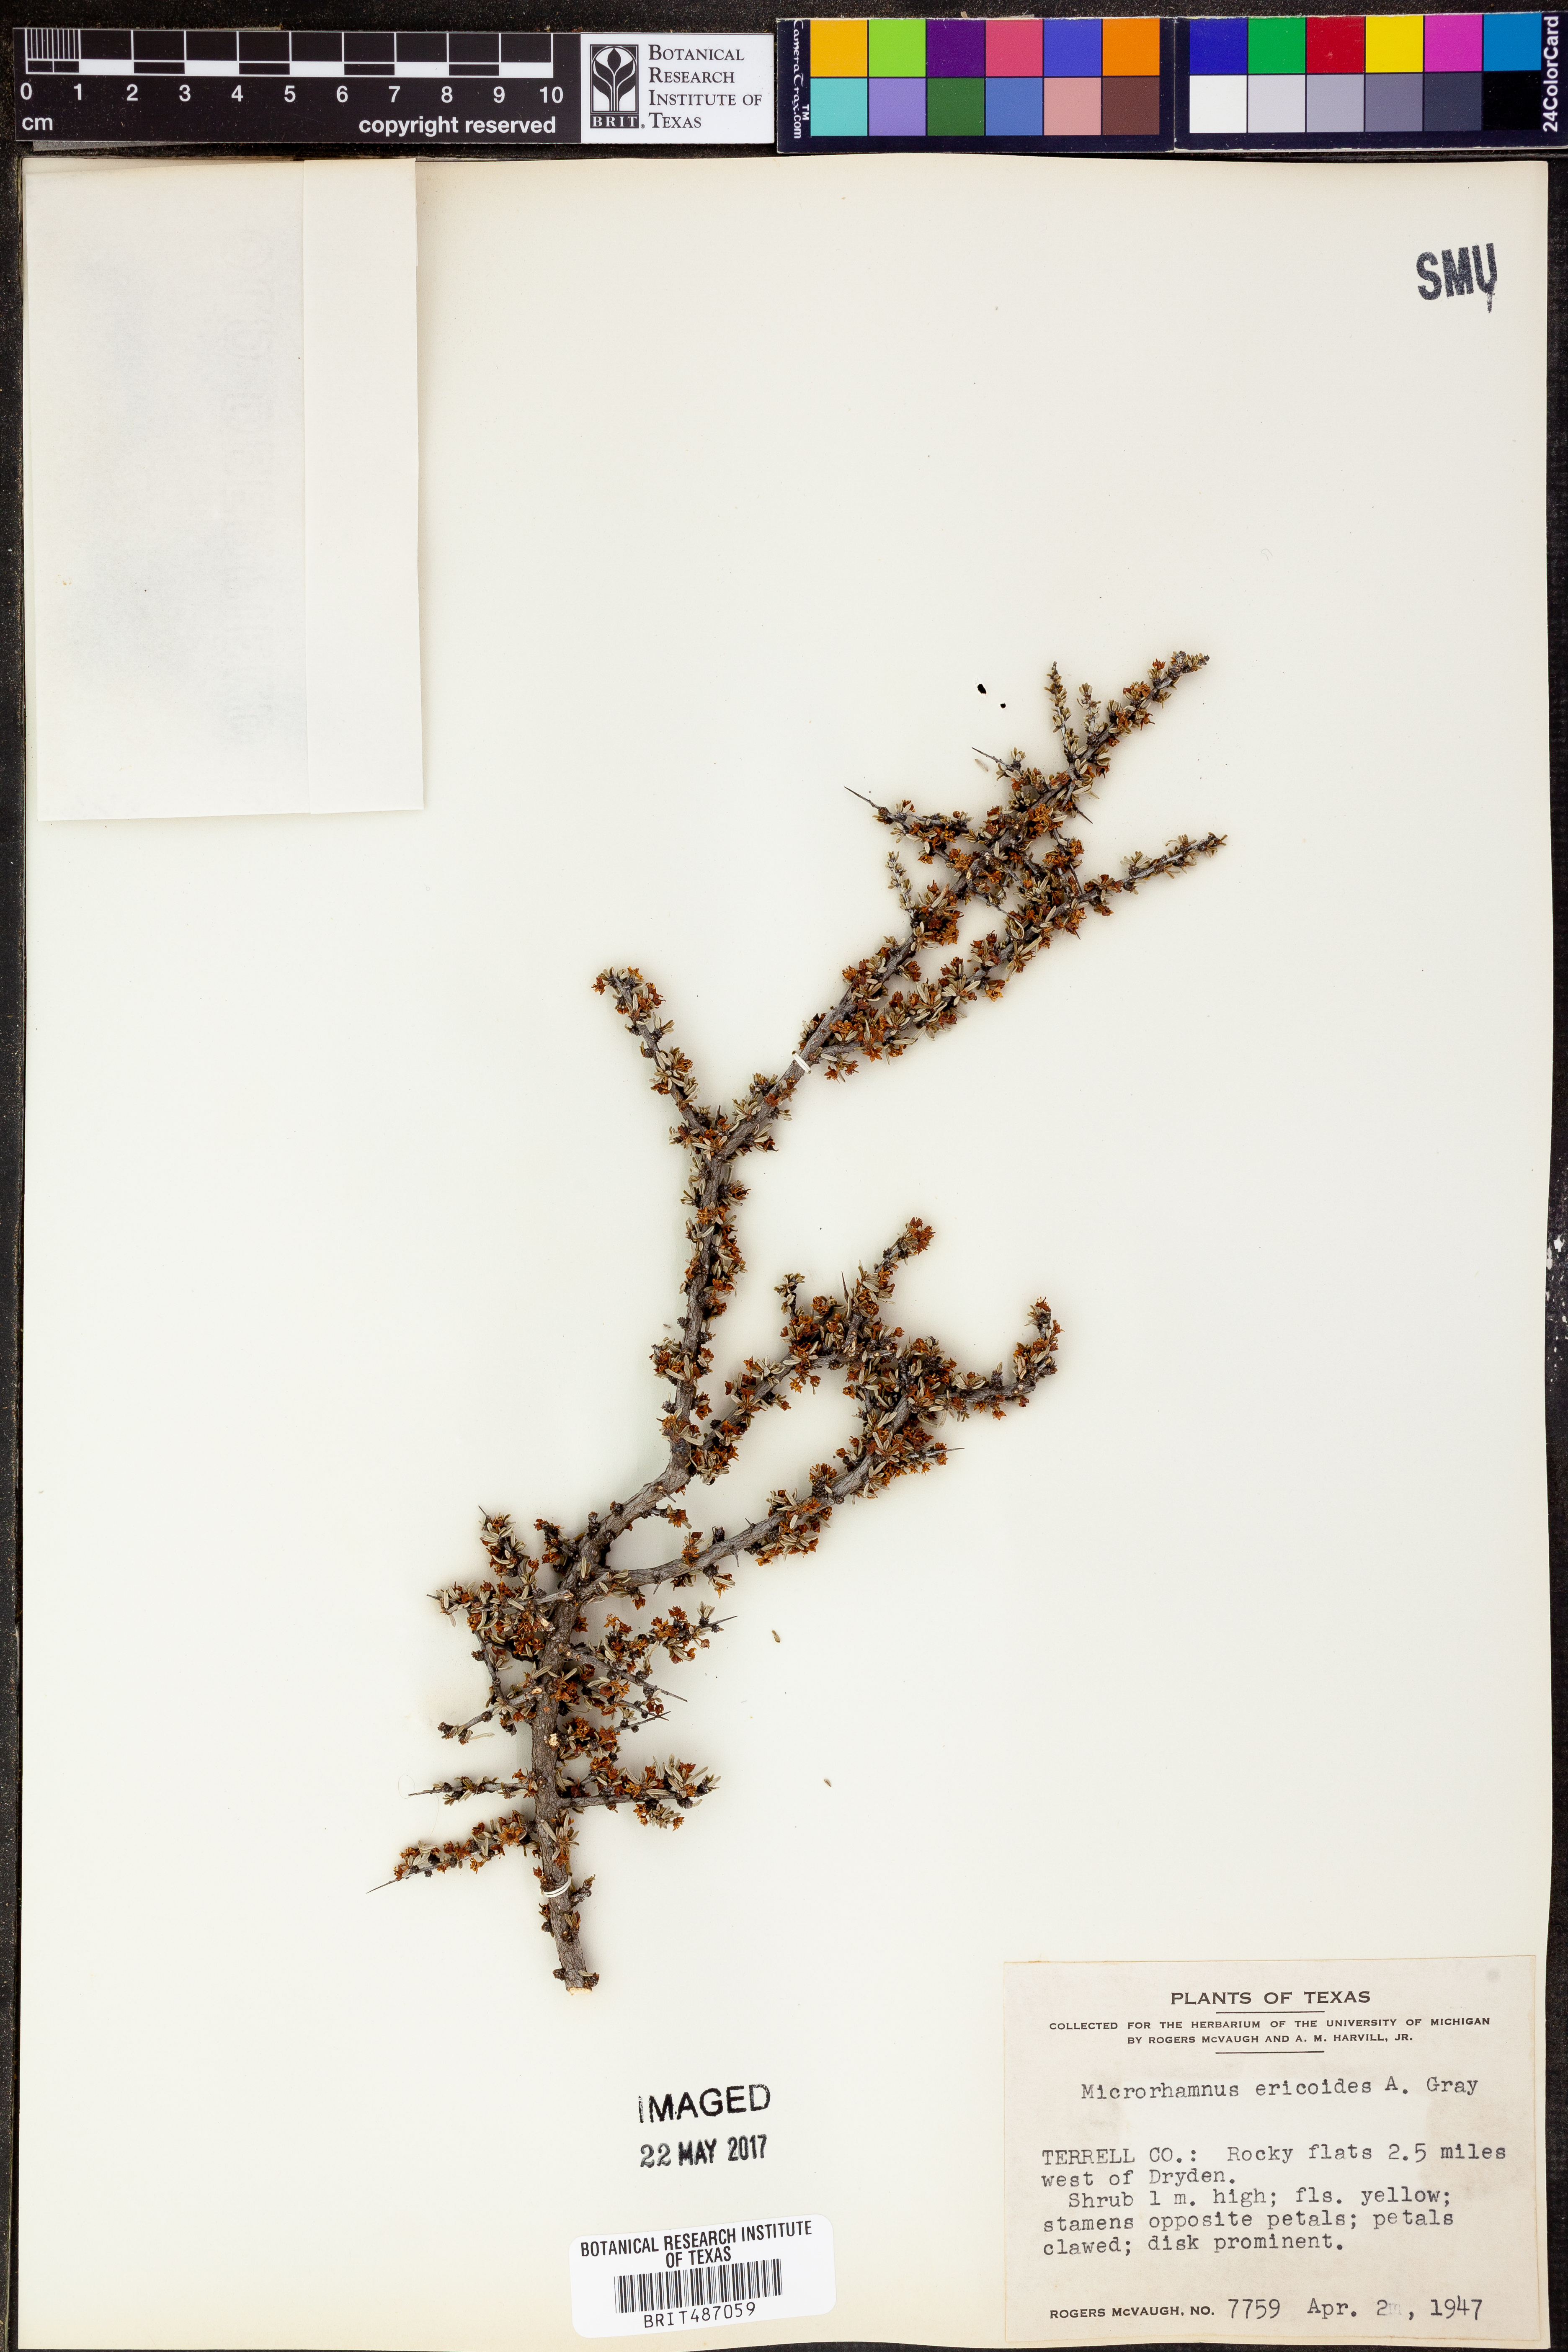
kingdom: Plantae
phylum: Tracheophyta
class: Magnoliopsida
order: Rosales
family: Rhamnaceae
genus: Condalia
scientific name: Condalia ericoides
